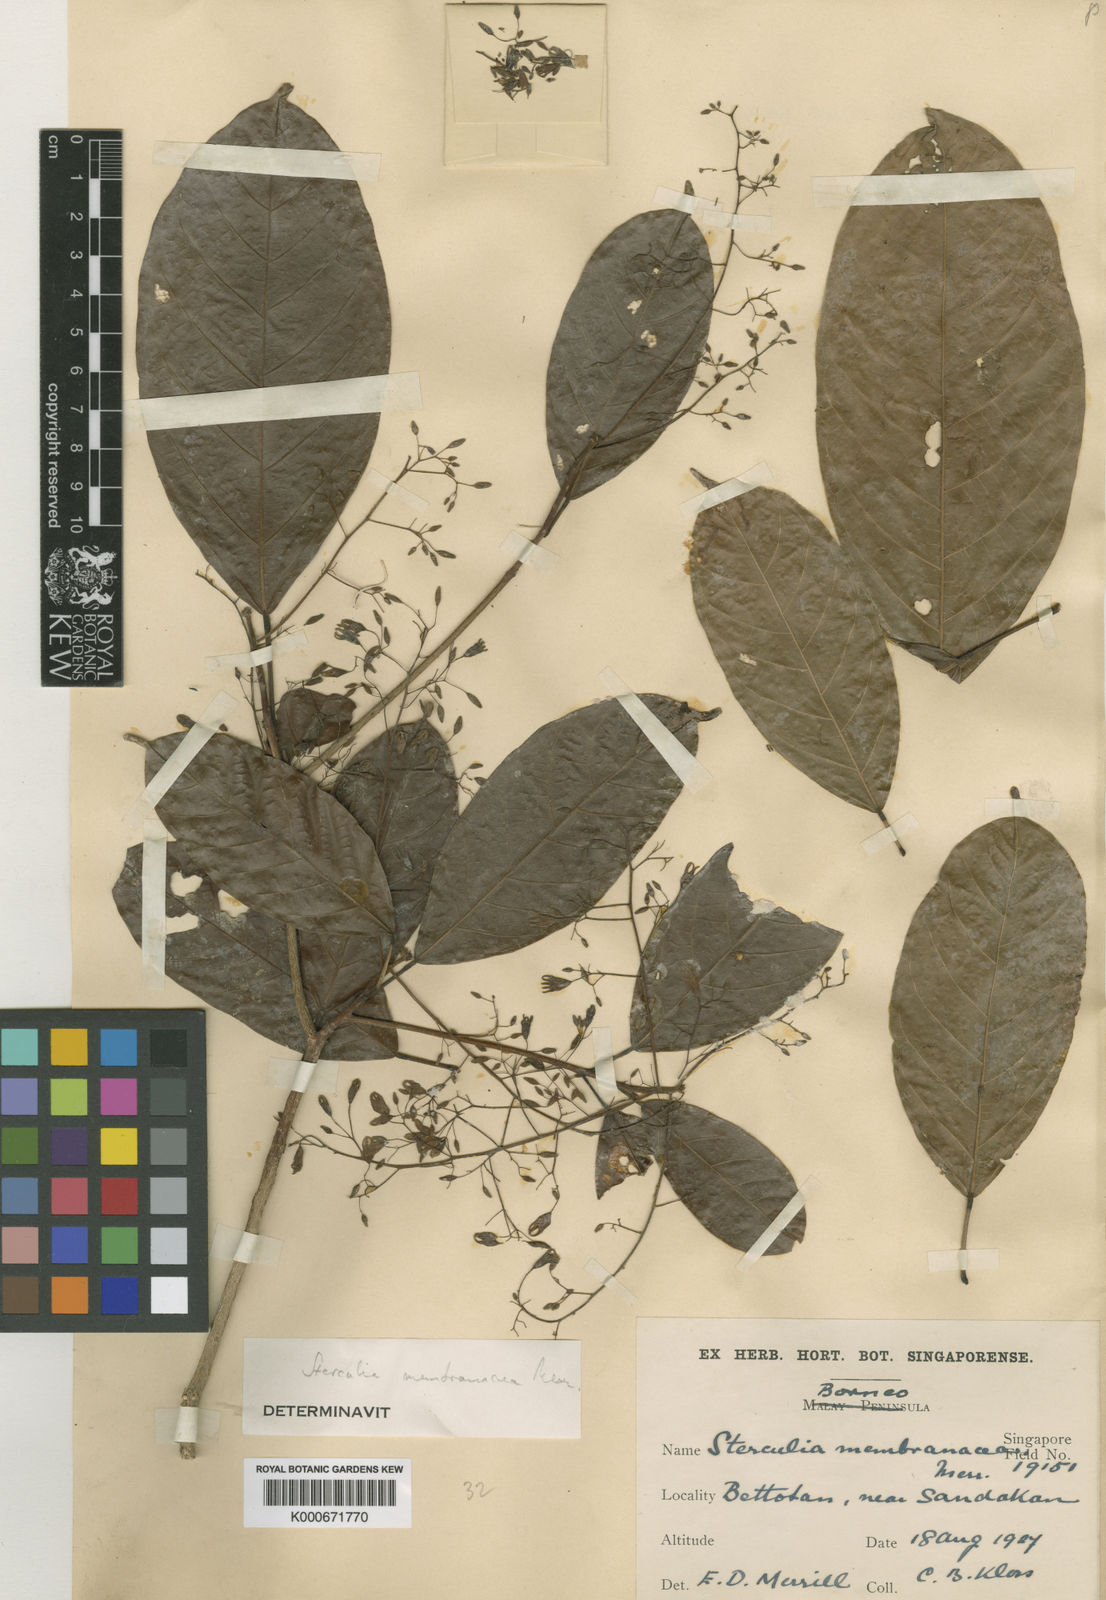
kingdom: Plantae
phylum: Tracheophyta
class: Magnoliopsida
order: Malvales
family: Malvaceae
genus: Sterculia
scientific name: Sterculia membranacea
